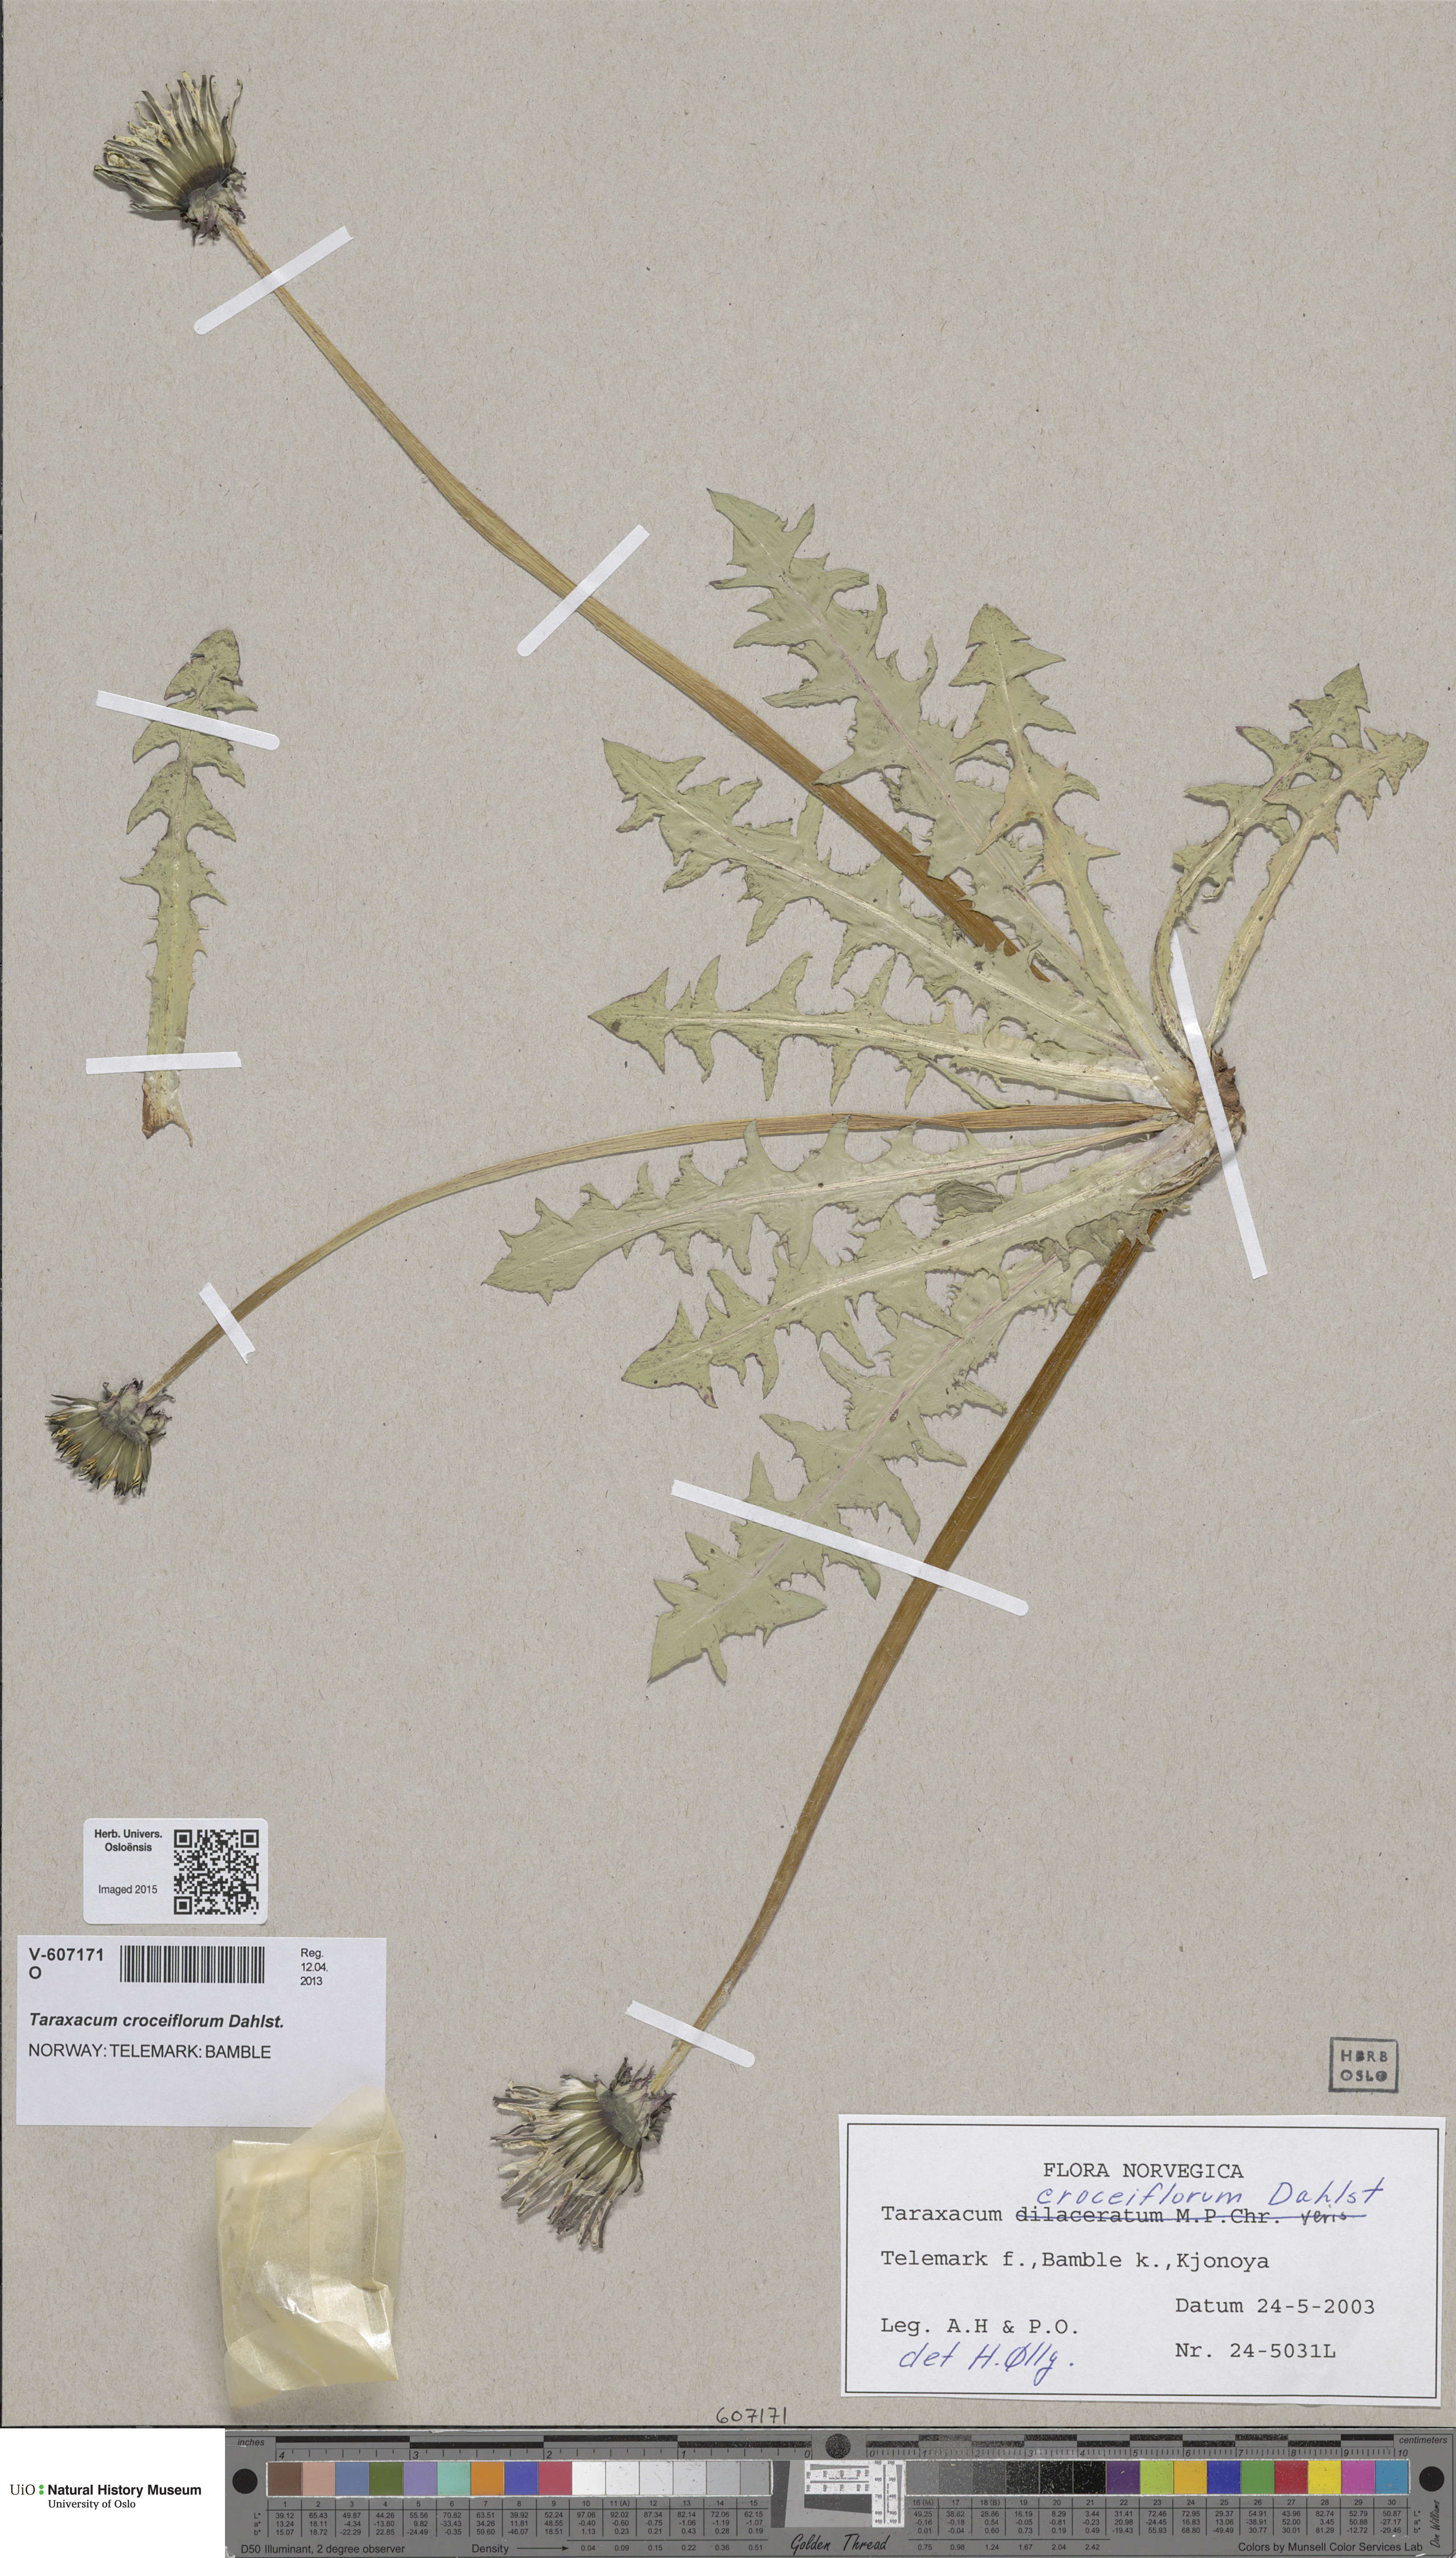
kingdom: Plantae
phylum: Tracheophyta
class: Magnoliopsida
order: Asterales
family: Asteraceae
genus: Taraxacum
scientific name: Taraxacum croceiflorum
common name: Orange-flowered dandelion
